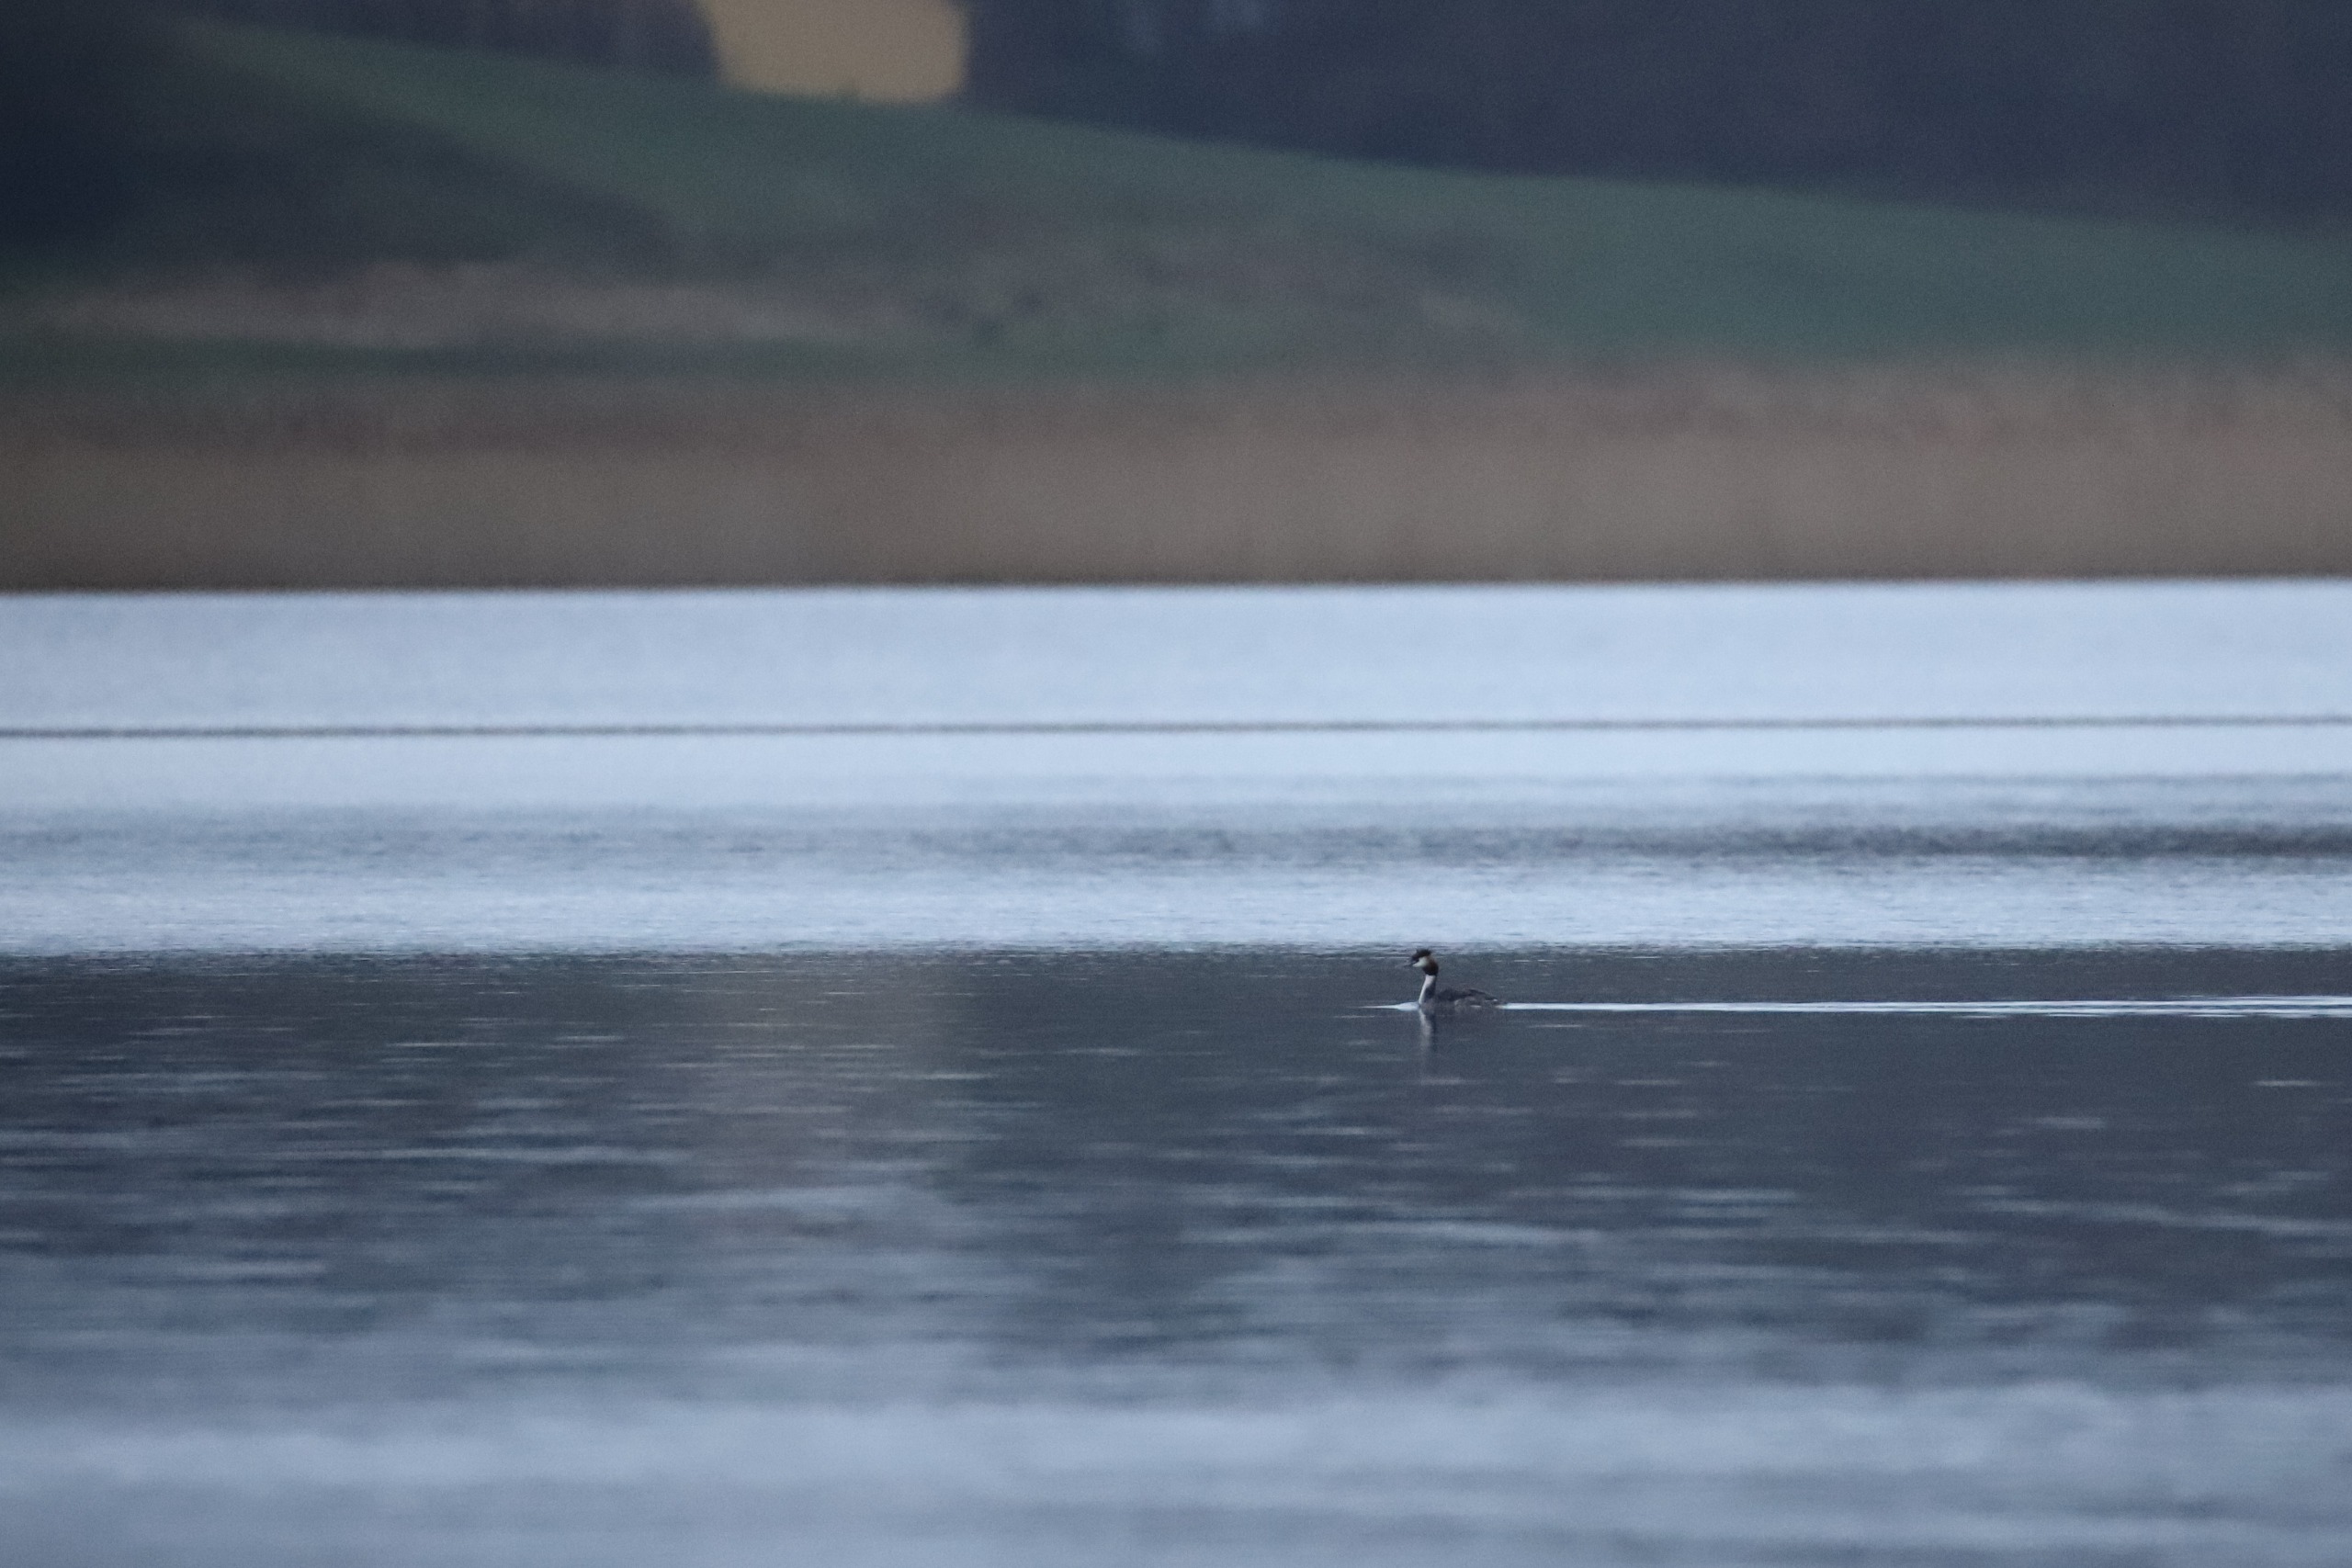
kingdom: Animalia
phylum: Chordata
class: Aves
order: Podicipediformes
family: Podicipedidae
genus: Podiceps
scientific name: Podiceps cristatus
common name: Toppet lappedykker
